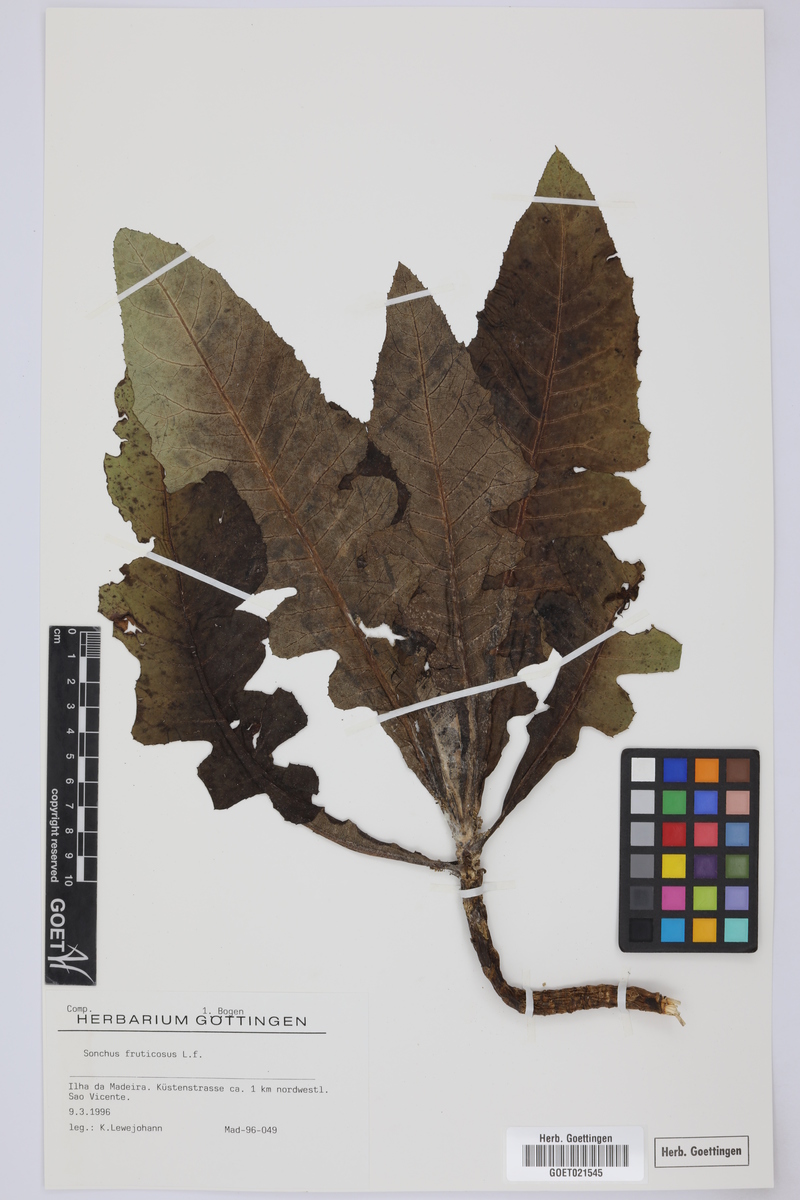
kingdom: Plantae
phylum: Tracheophyta
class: Magnoliopsida
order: Asterales
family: Asteraceae
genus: Sonchus
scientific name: Sonchus fruticosus
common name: Shrubby sow-thistle
